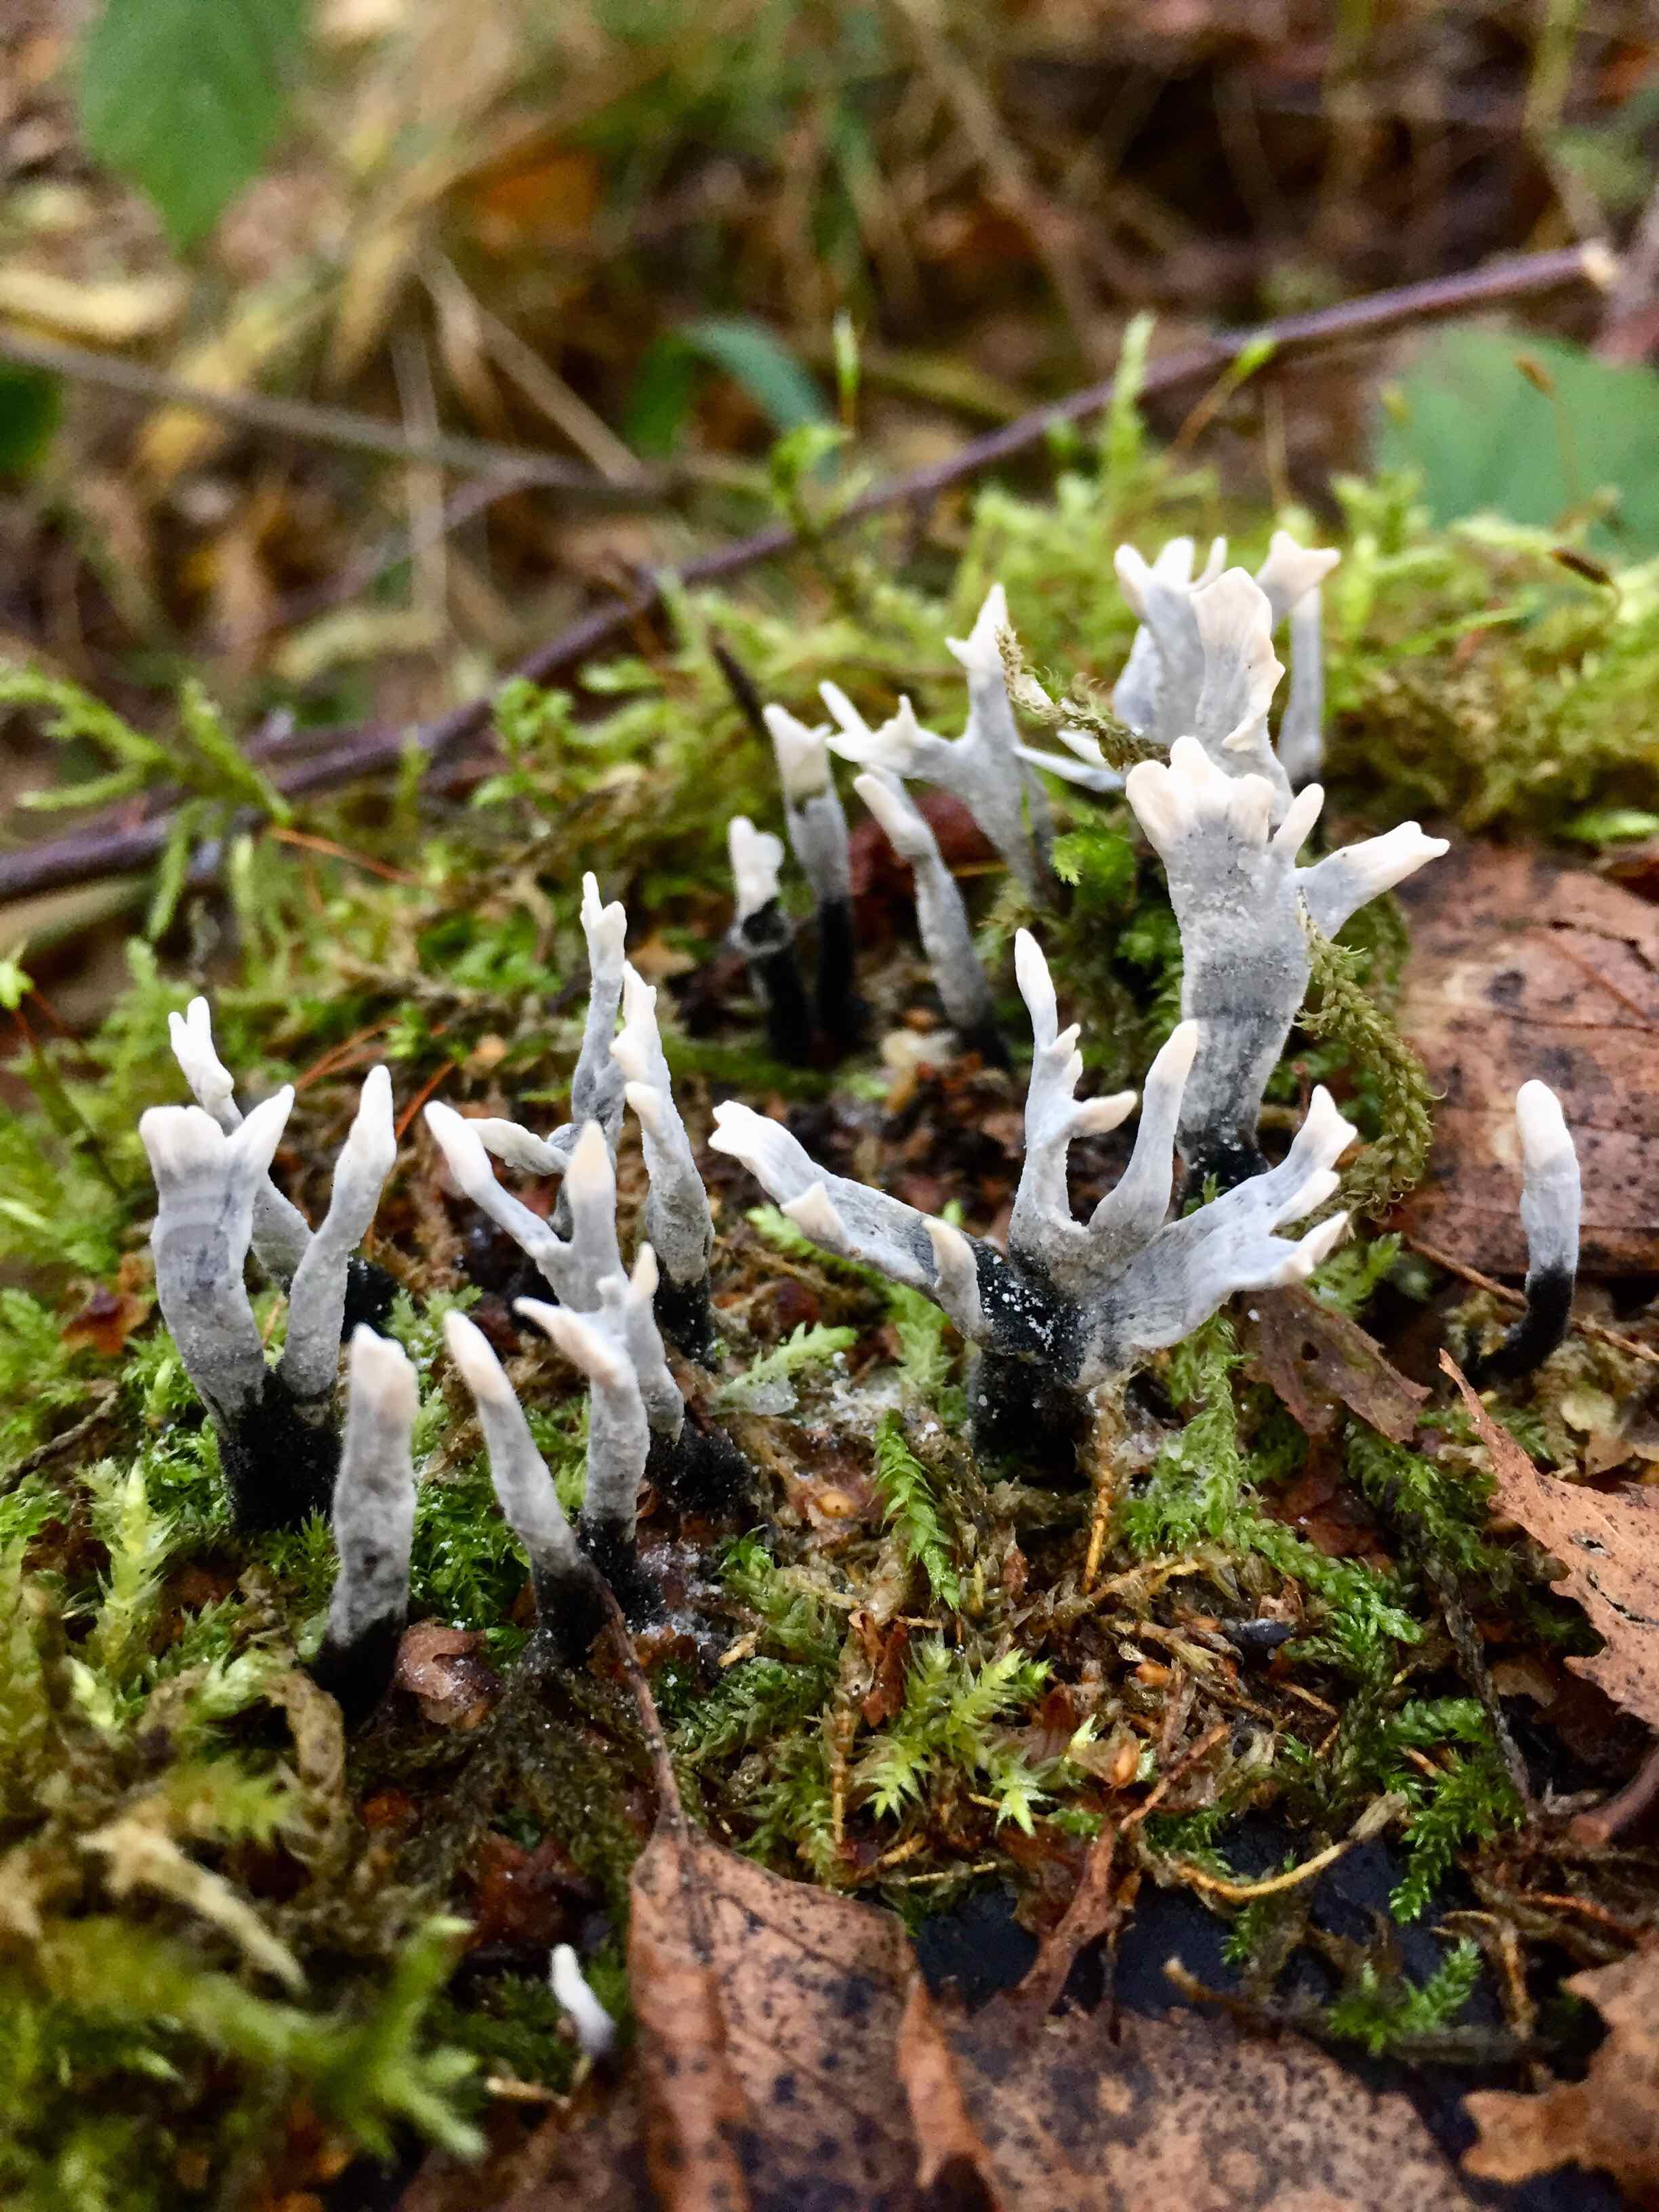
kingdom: Fungi
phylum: Ascomycota
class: Sordariomycetes
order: Xylariales
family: Xylariaceae
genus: Xylaria
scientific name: Xylaria hypoxylon
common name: grenet stødsvamp
